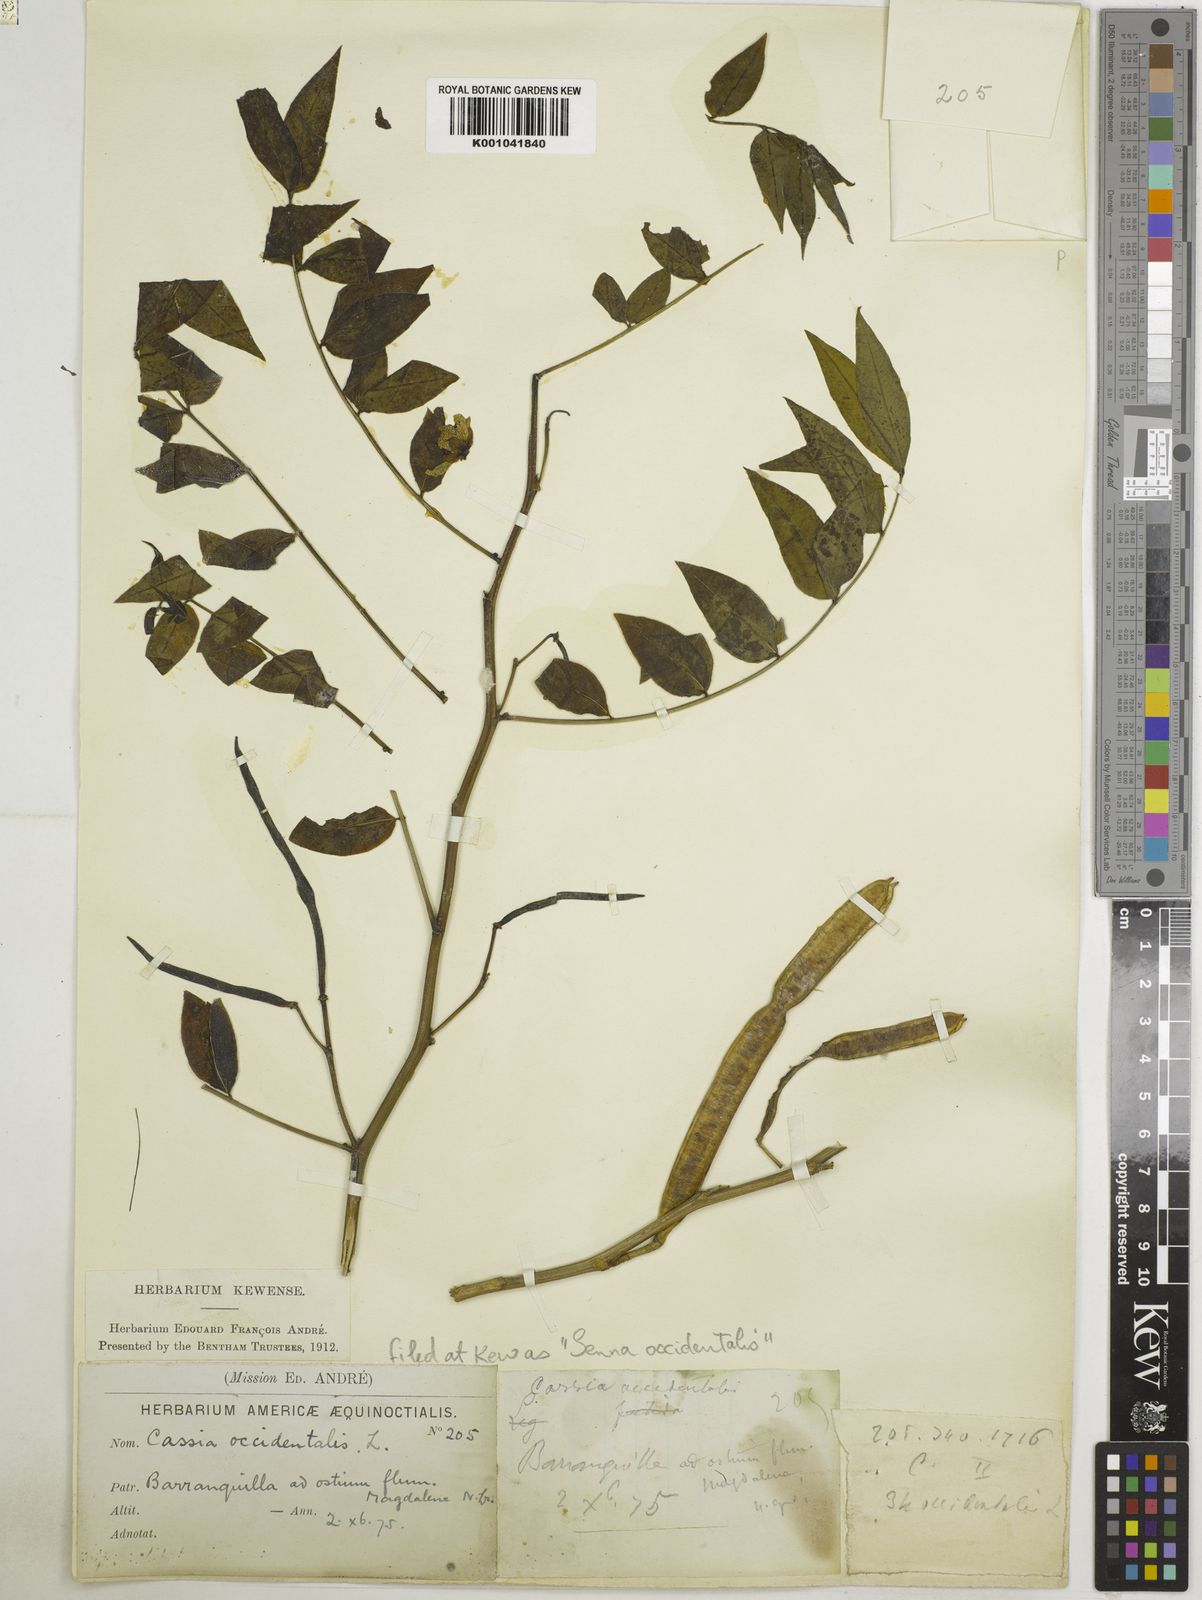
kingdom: Plantae
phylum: Tracheophyta
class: Magnoliopsida
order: Fabales
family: Fabaceae
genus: Senna
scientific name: Senna occidentalis
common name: Septicweed
